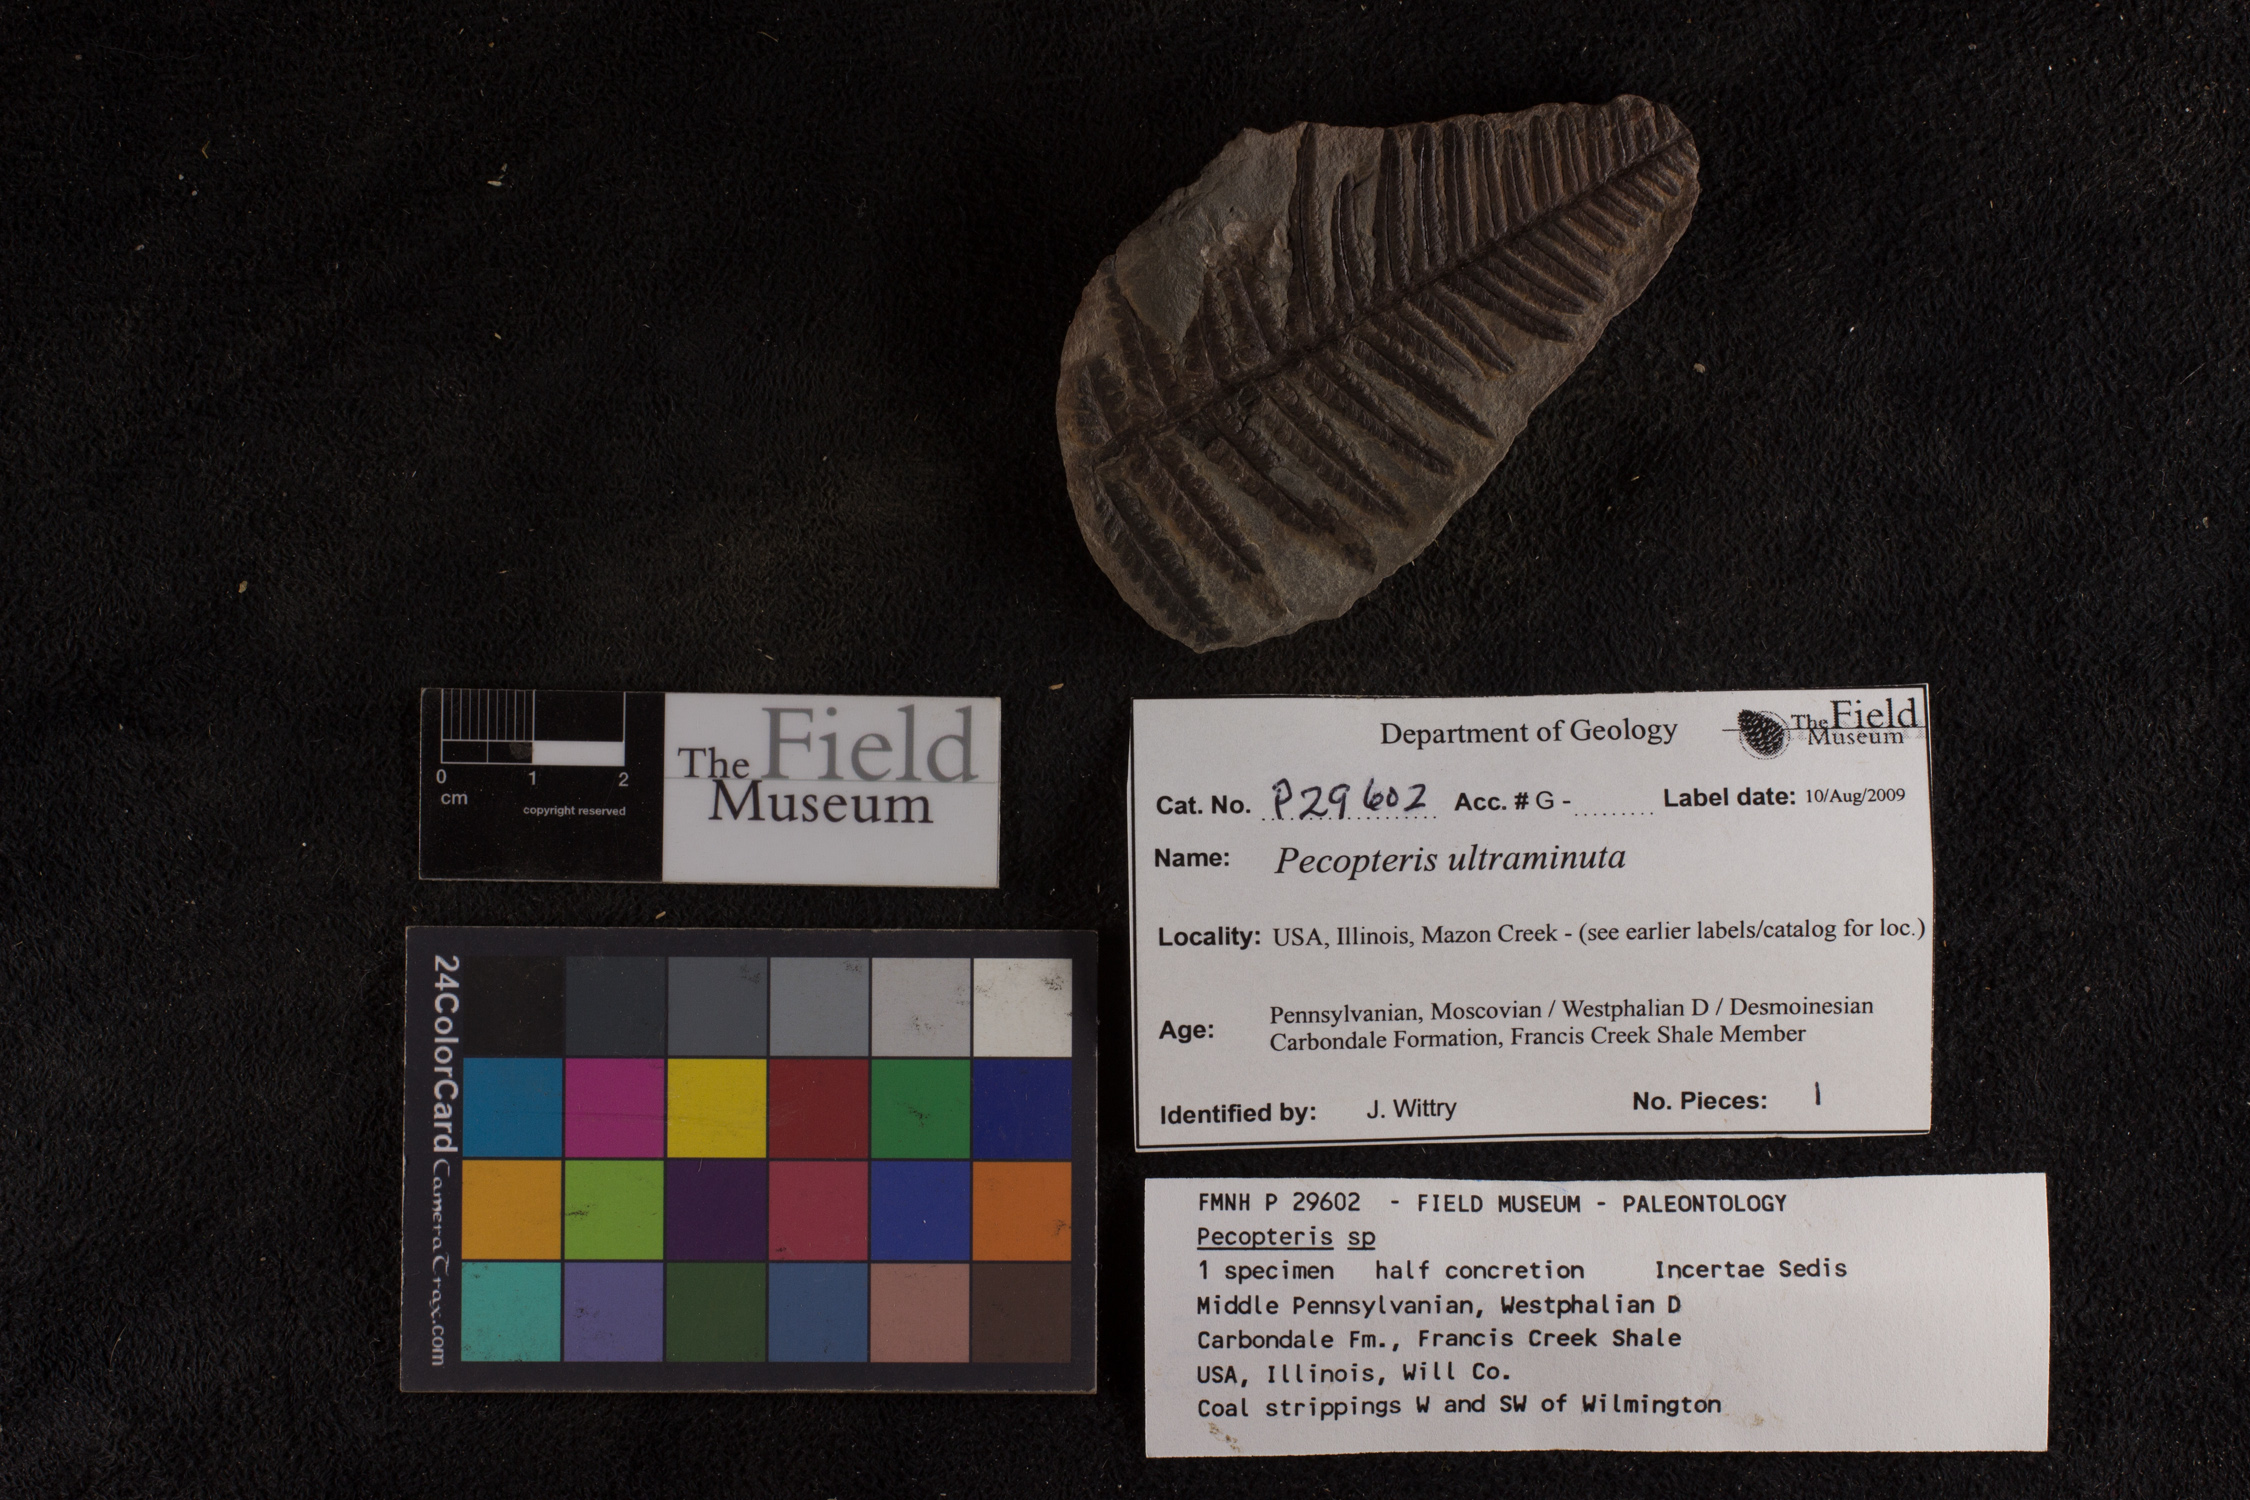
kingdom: Plantae
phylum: Tracheophyta
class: Polypodiopsida
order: Marattiales
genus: Cyathocarpus
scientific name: Cyathocarpus
